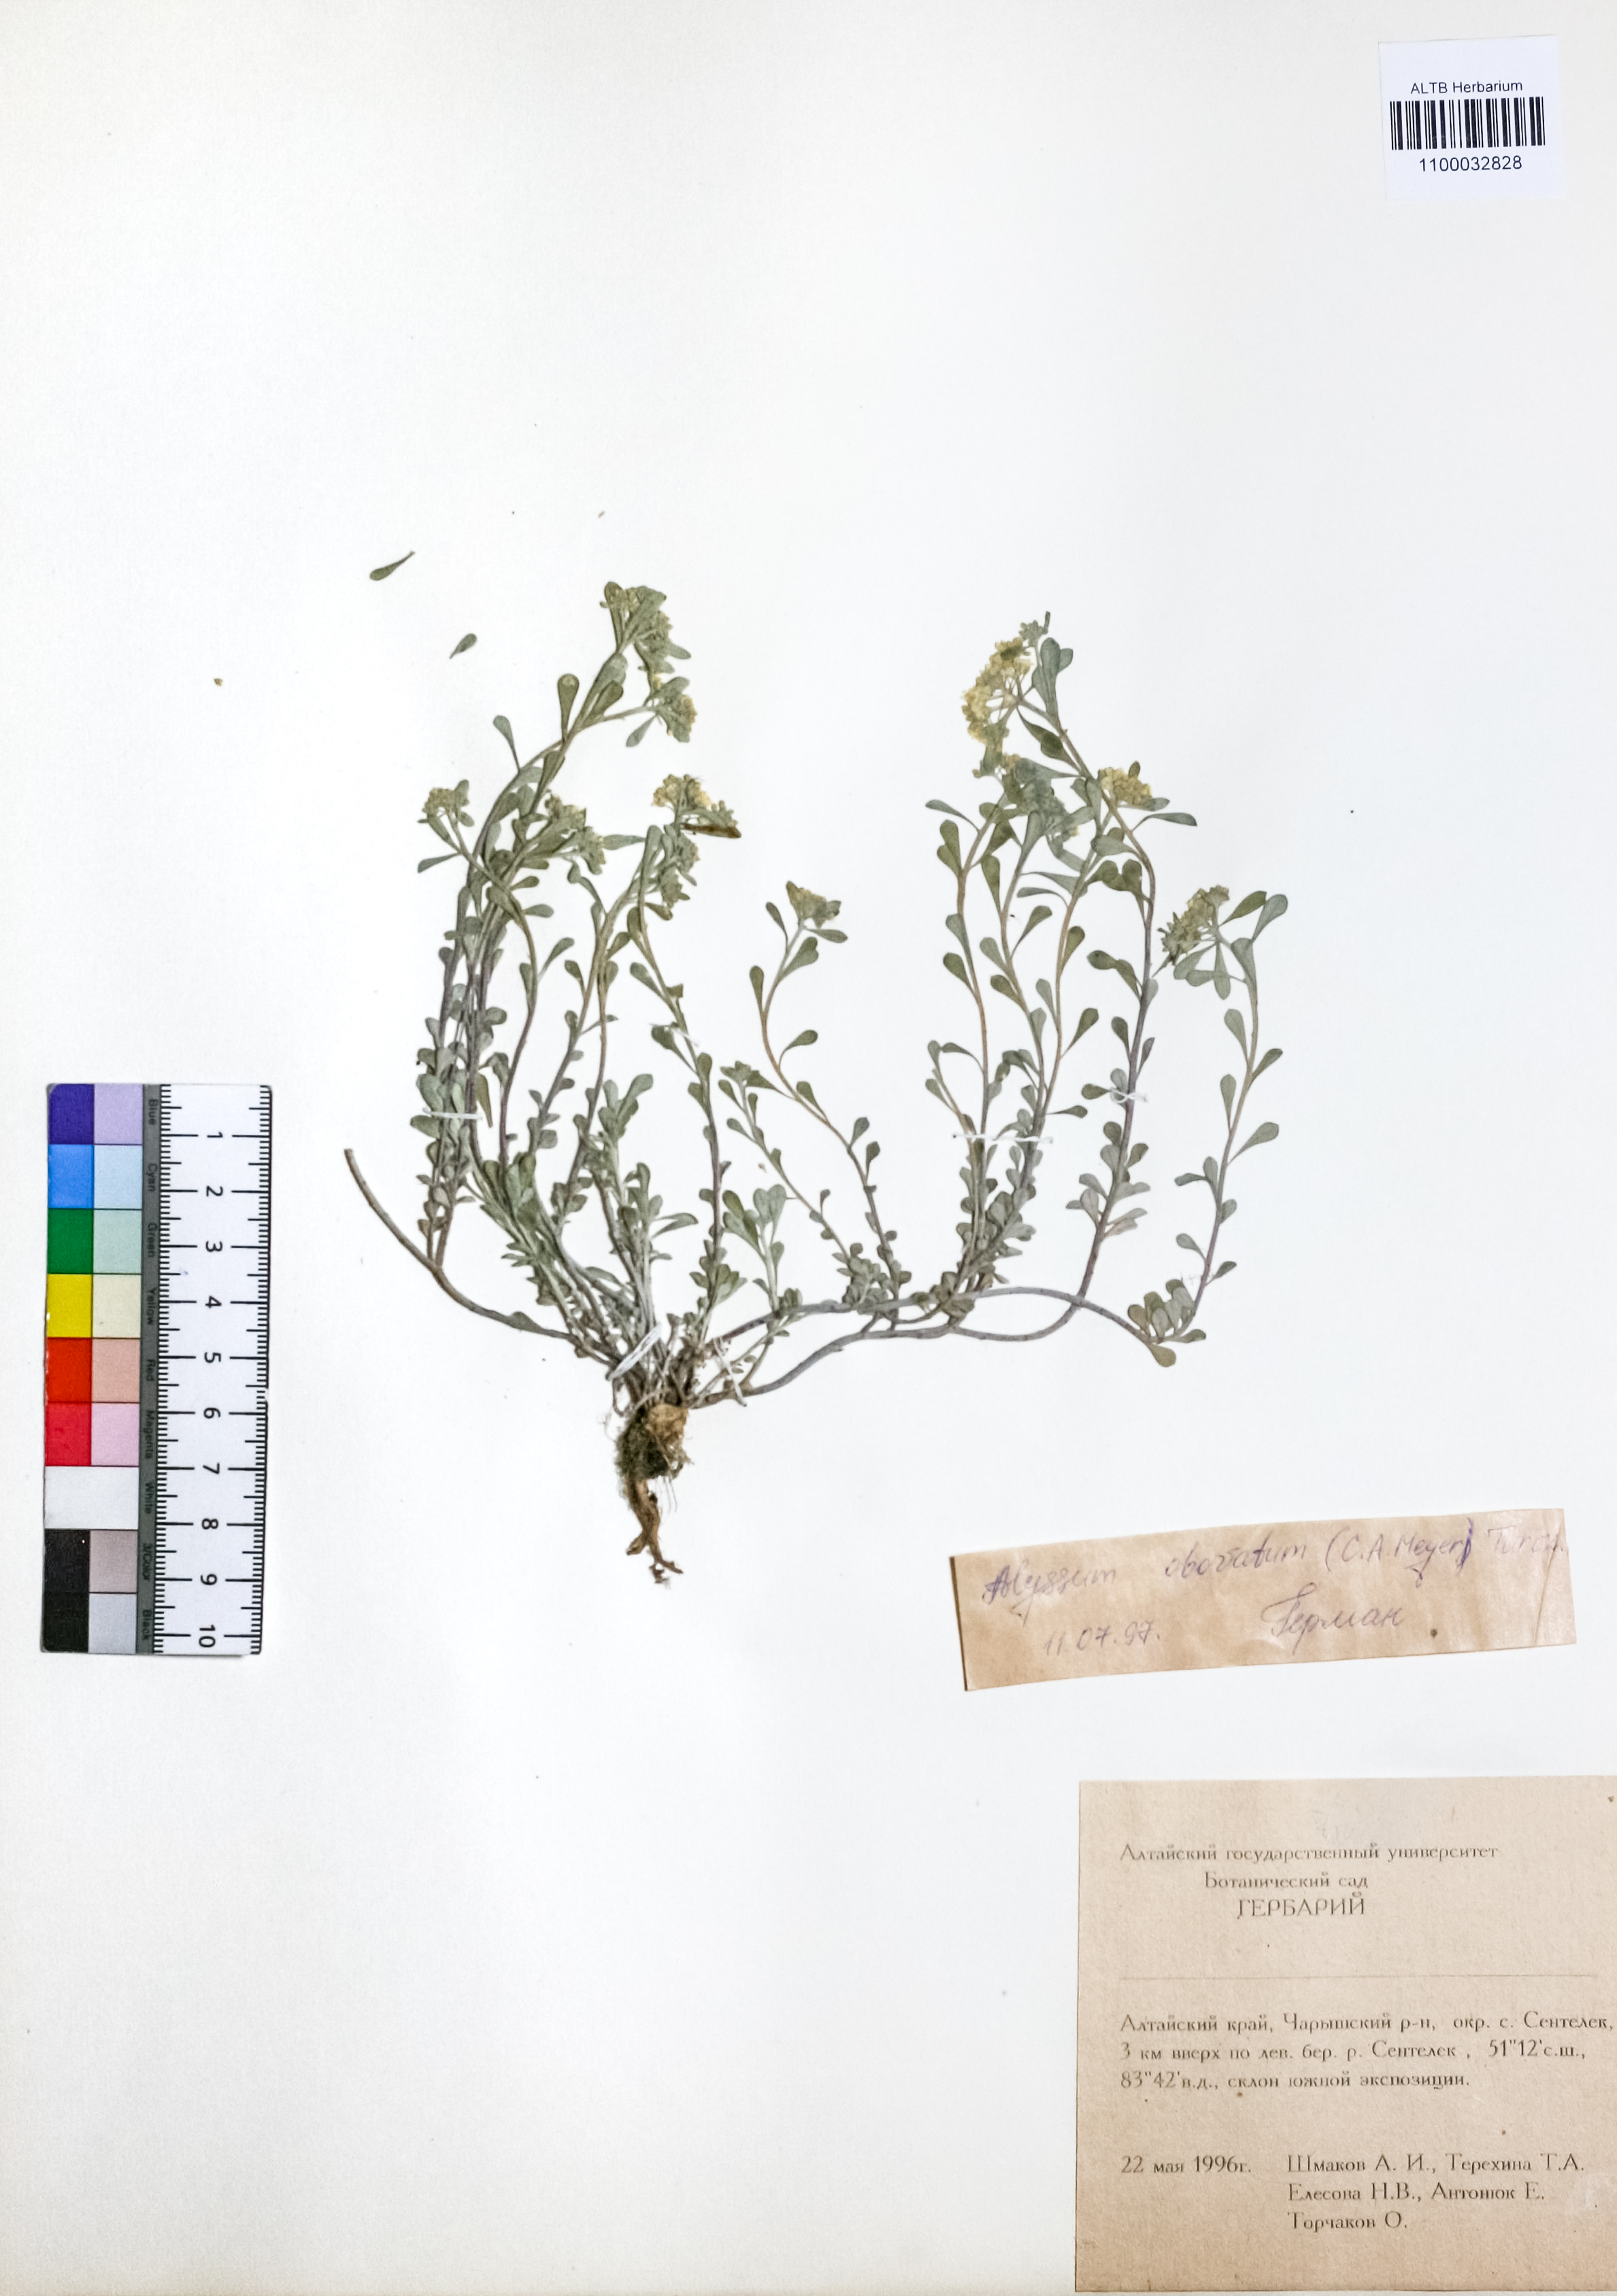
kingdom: Plantae
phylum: Tracheophyta
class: Magnoliopsida
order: Brassicales
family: Brassicaceae
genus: Odontarrhena
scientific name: Odontarrhena obovata
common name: American alyssum
